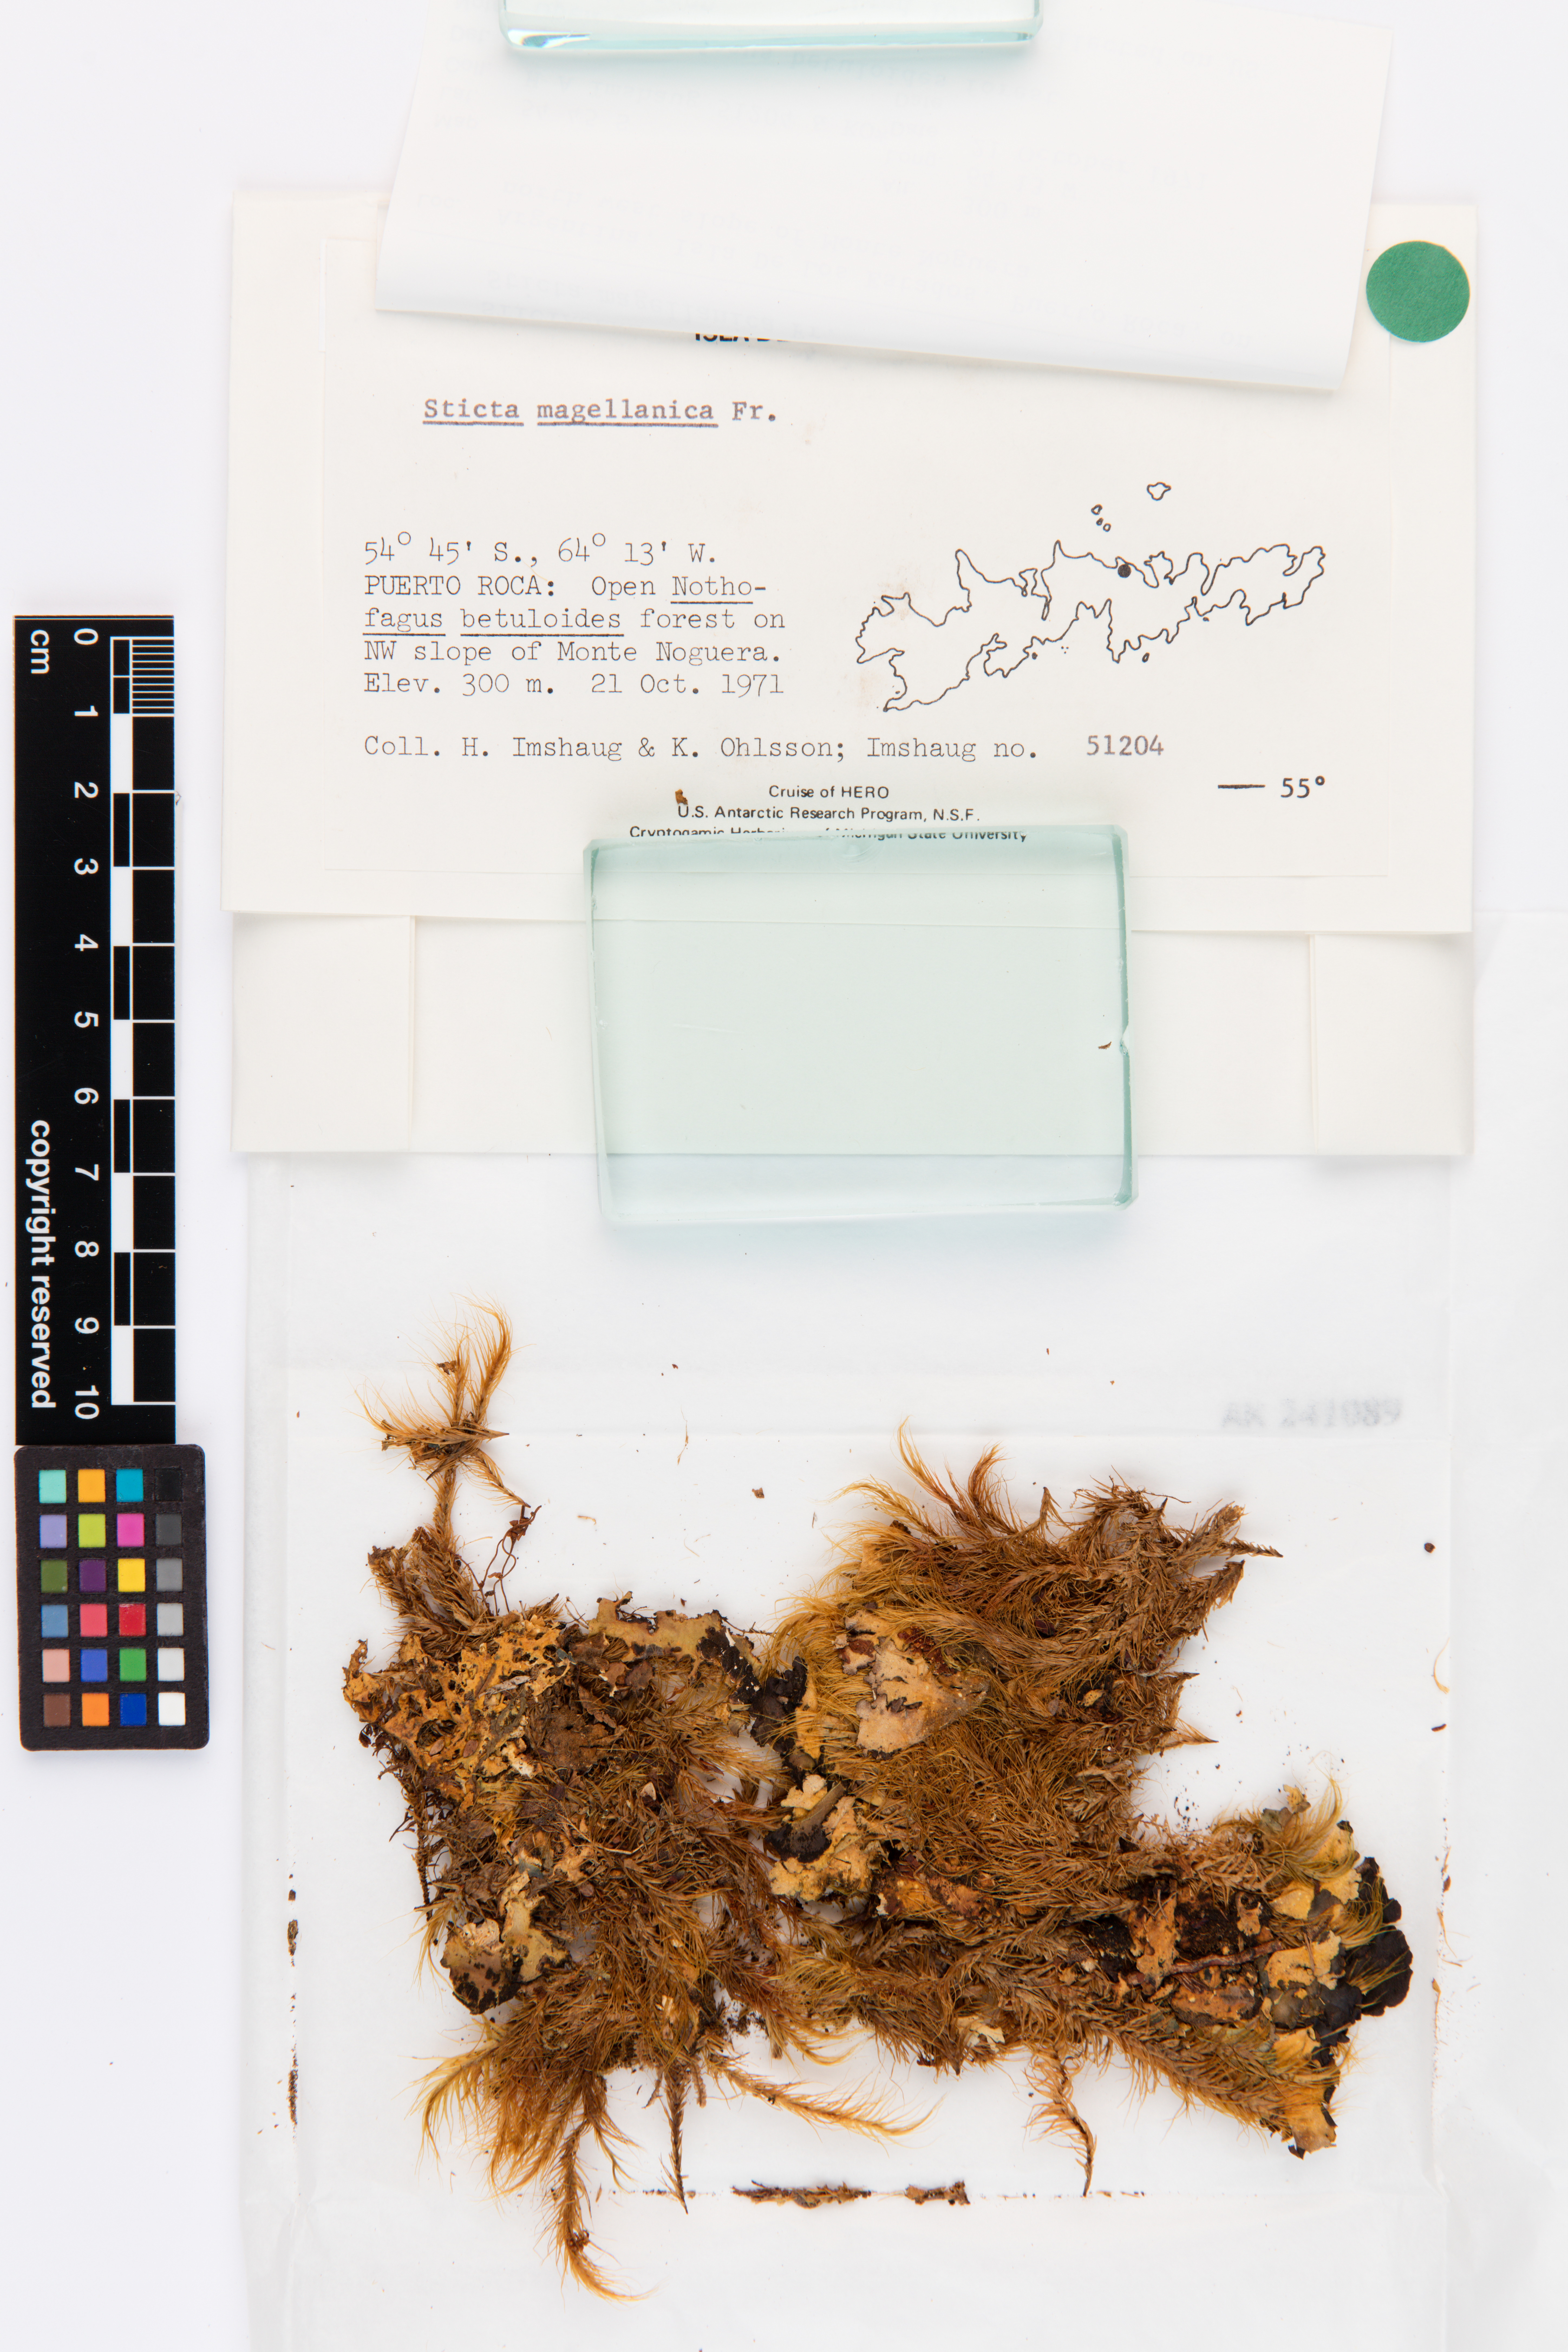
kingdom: Fungi
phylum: Ascomycota
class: Lecanoromycetes
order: Peltigerales
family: Lobariaceae
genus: Sticta
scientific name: Sticta
